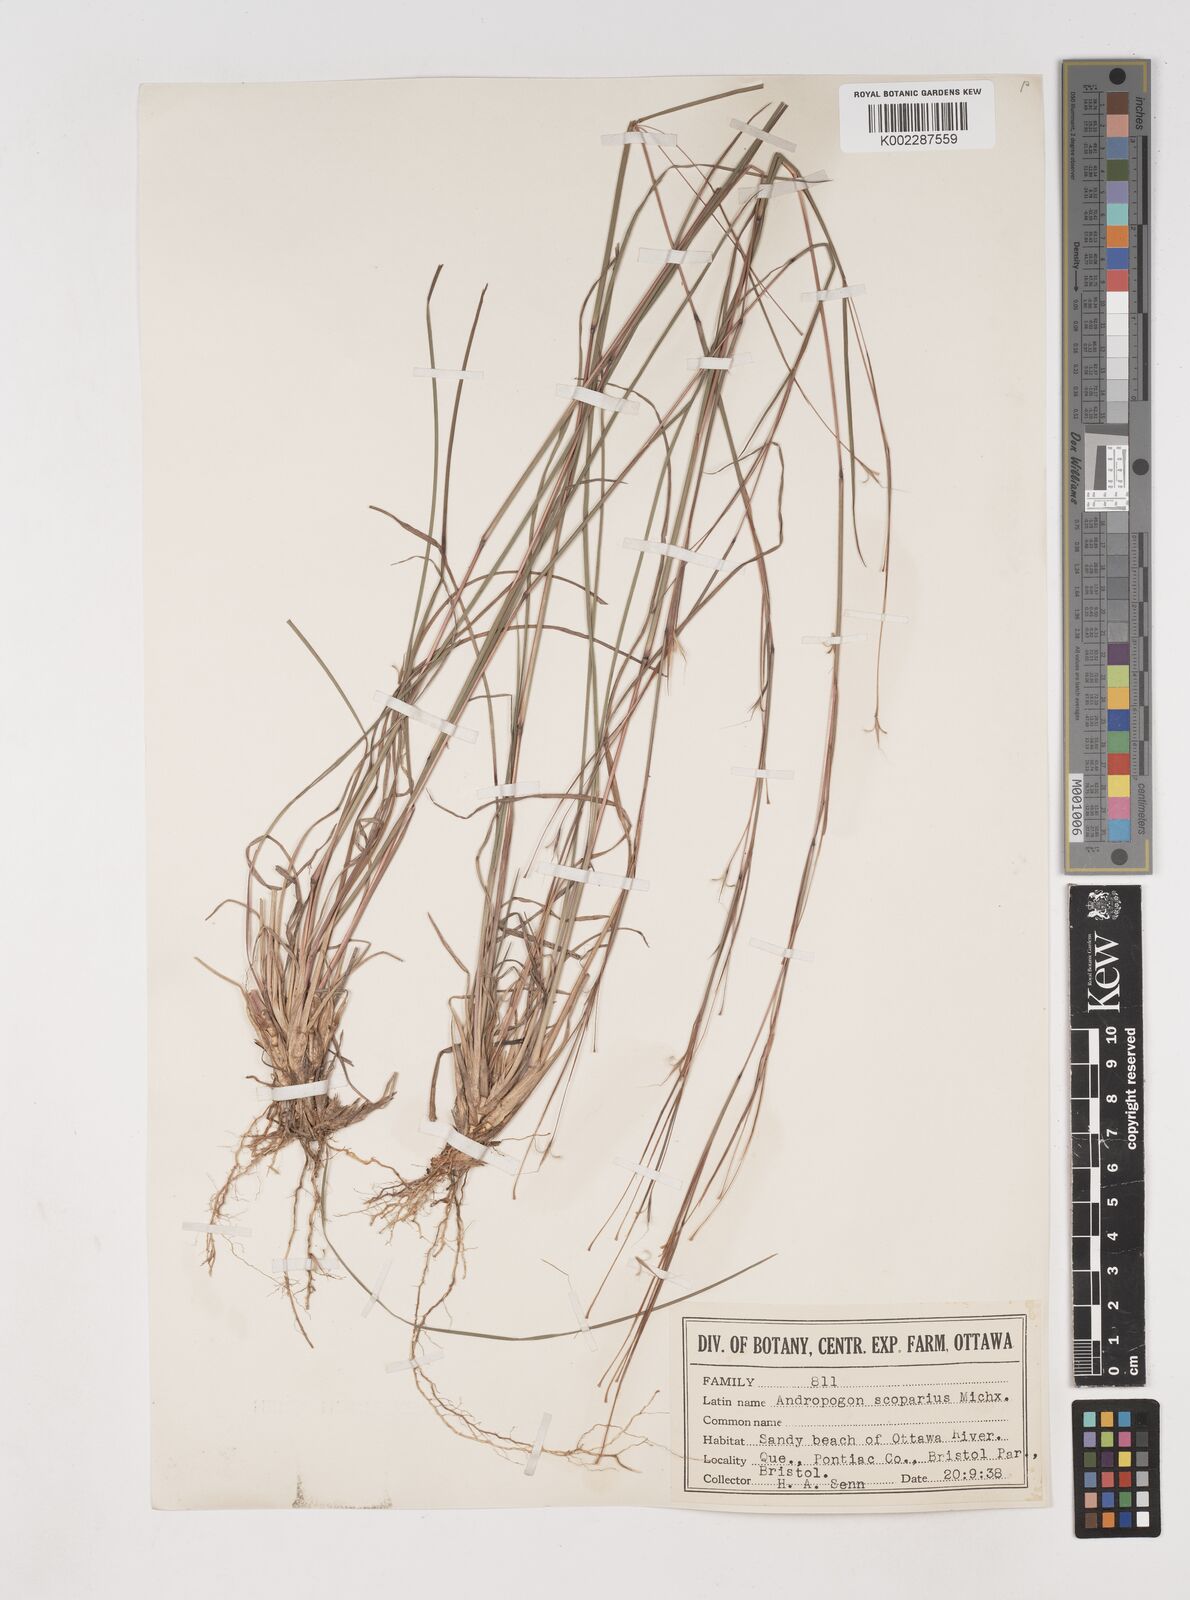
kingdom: Plantae
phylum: Tracheophyta
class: Liliopsida
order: Poales
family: Poaceae
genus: Schizachyrium
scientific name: Schizachyrium scoparium
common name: Little bluestem
